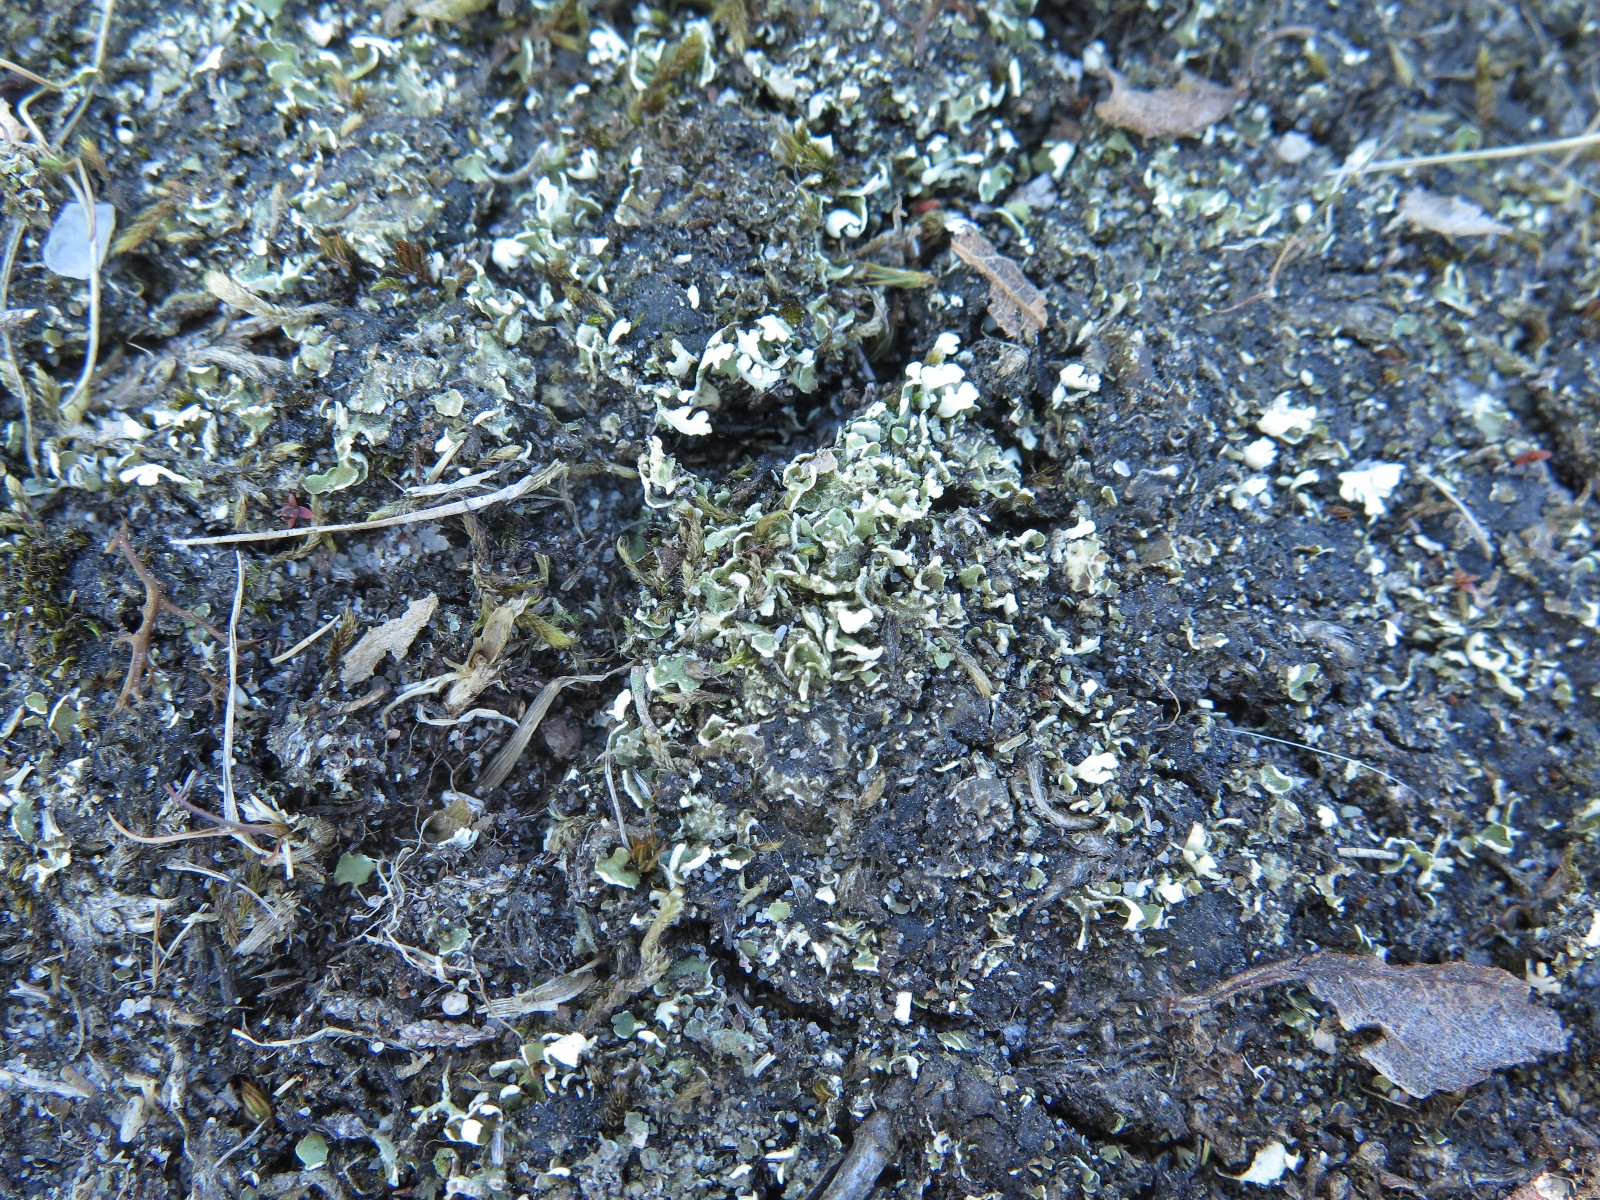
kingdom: Fungi
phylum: Ascomycota
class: Lecanoromycetes
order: Lecanorales
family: Cladoniaceae
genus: Cladonia
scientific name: Cladonia foliacea
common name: fliget bægerlav
